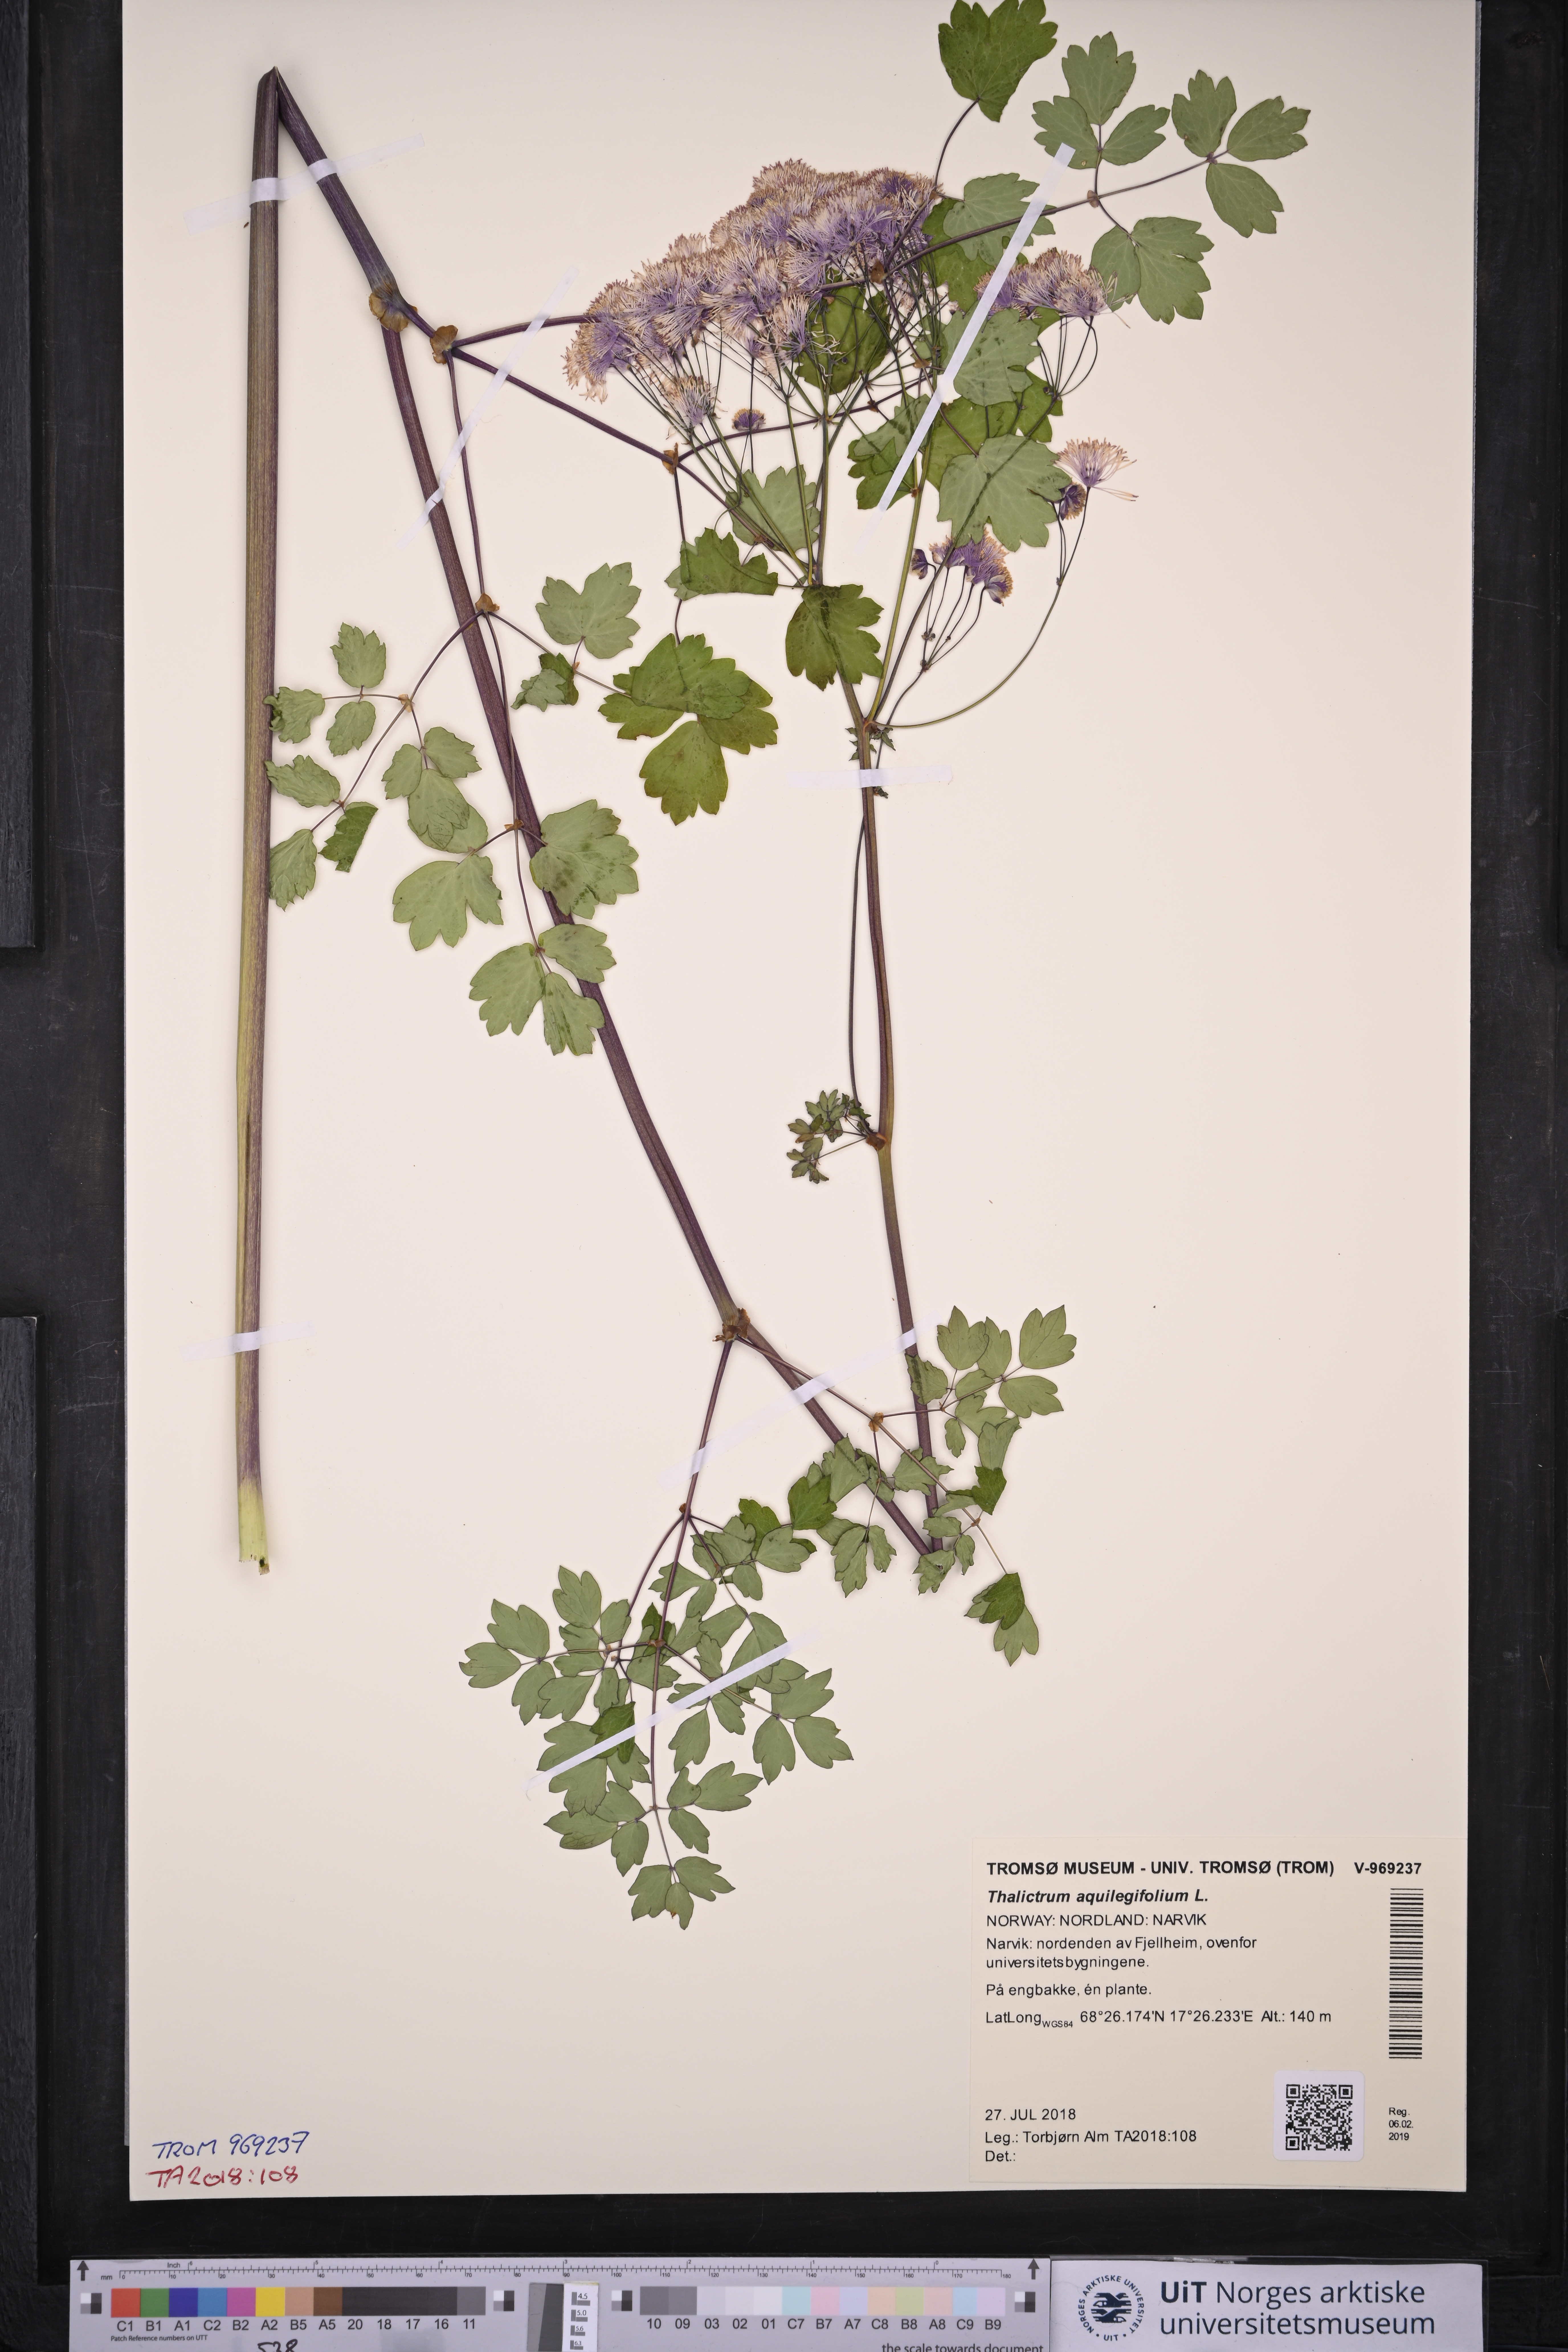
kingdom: Plantae
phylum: Tracheophyta
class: Magnoliopsida
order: Ranunculales
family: Ranunculaceae
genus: Thalictrum
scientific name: Thalictrum aquilegiifolium
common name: French meadow-rue
